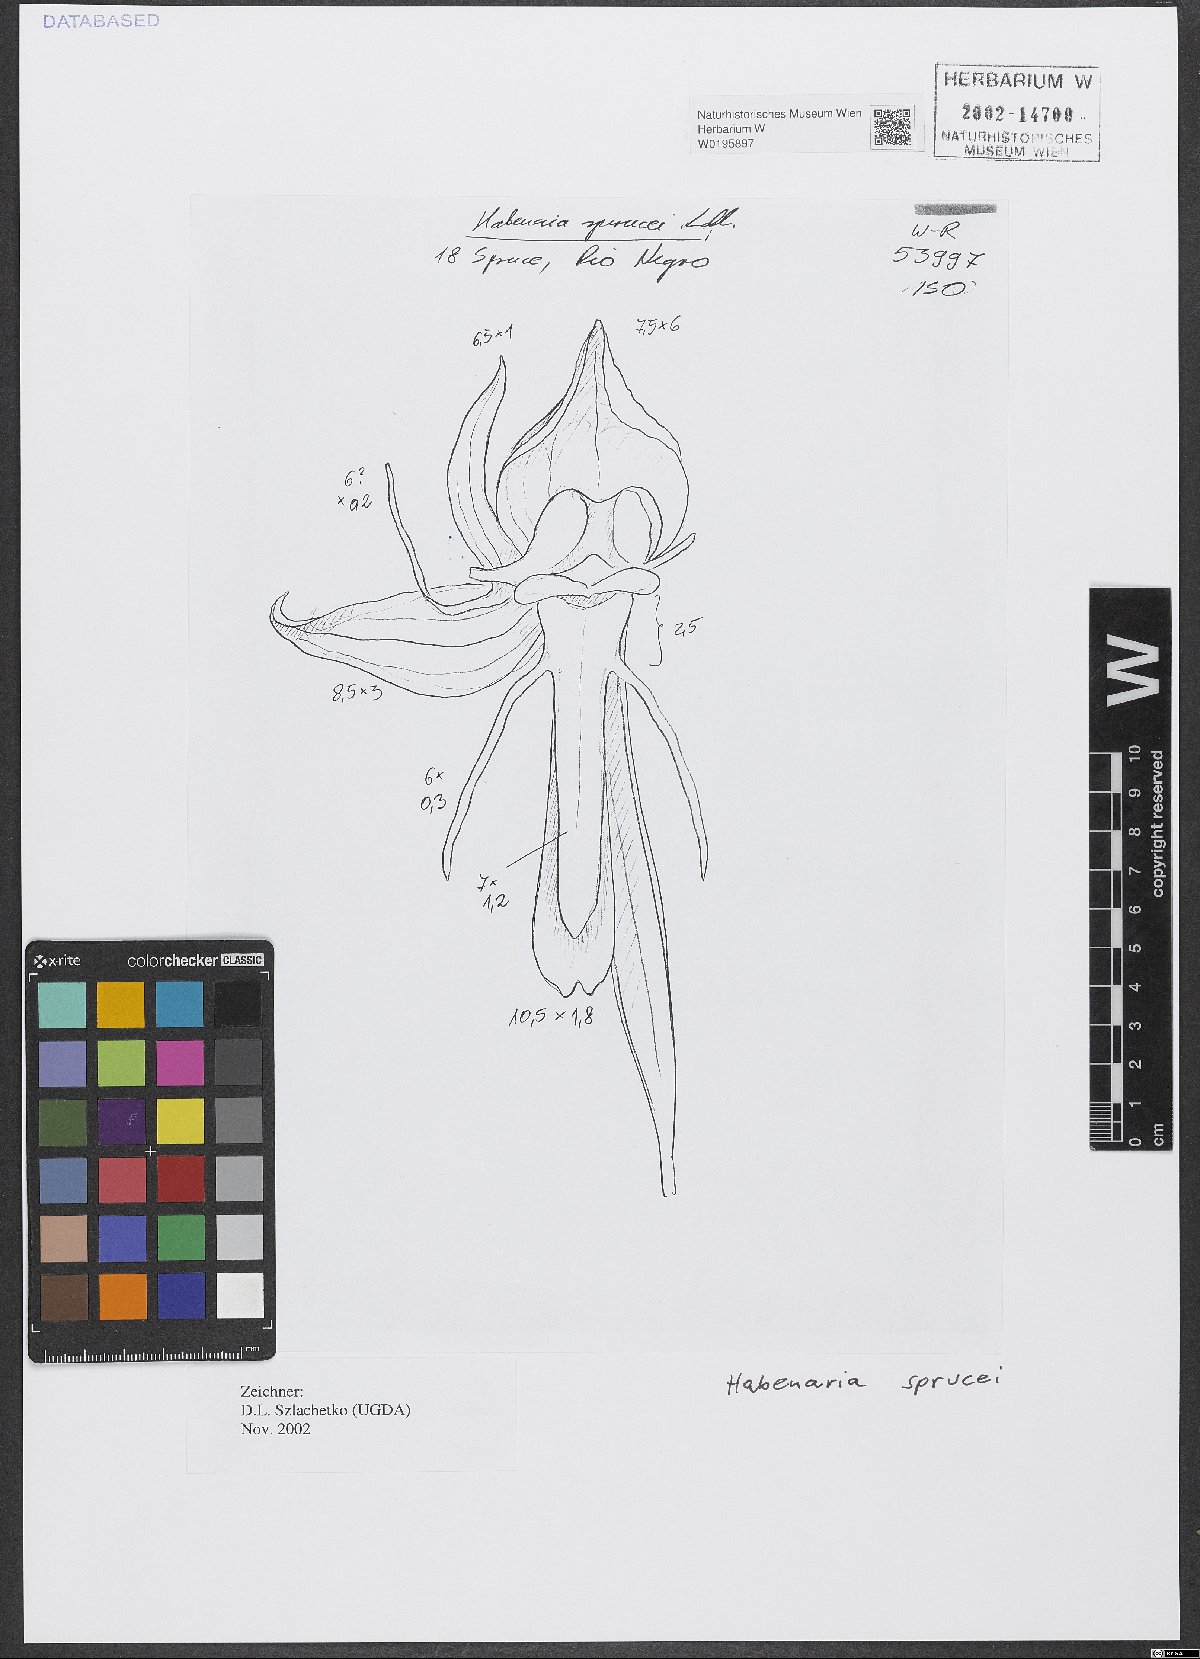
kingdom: Plantae
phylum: Tracheophyta
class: Liliopsida
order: Asparagales
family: Orchidaceae
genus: Habenaria
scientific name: Habenaria sprucei
